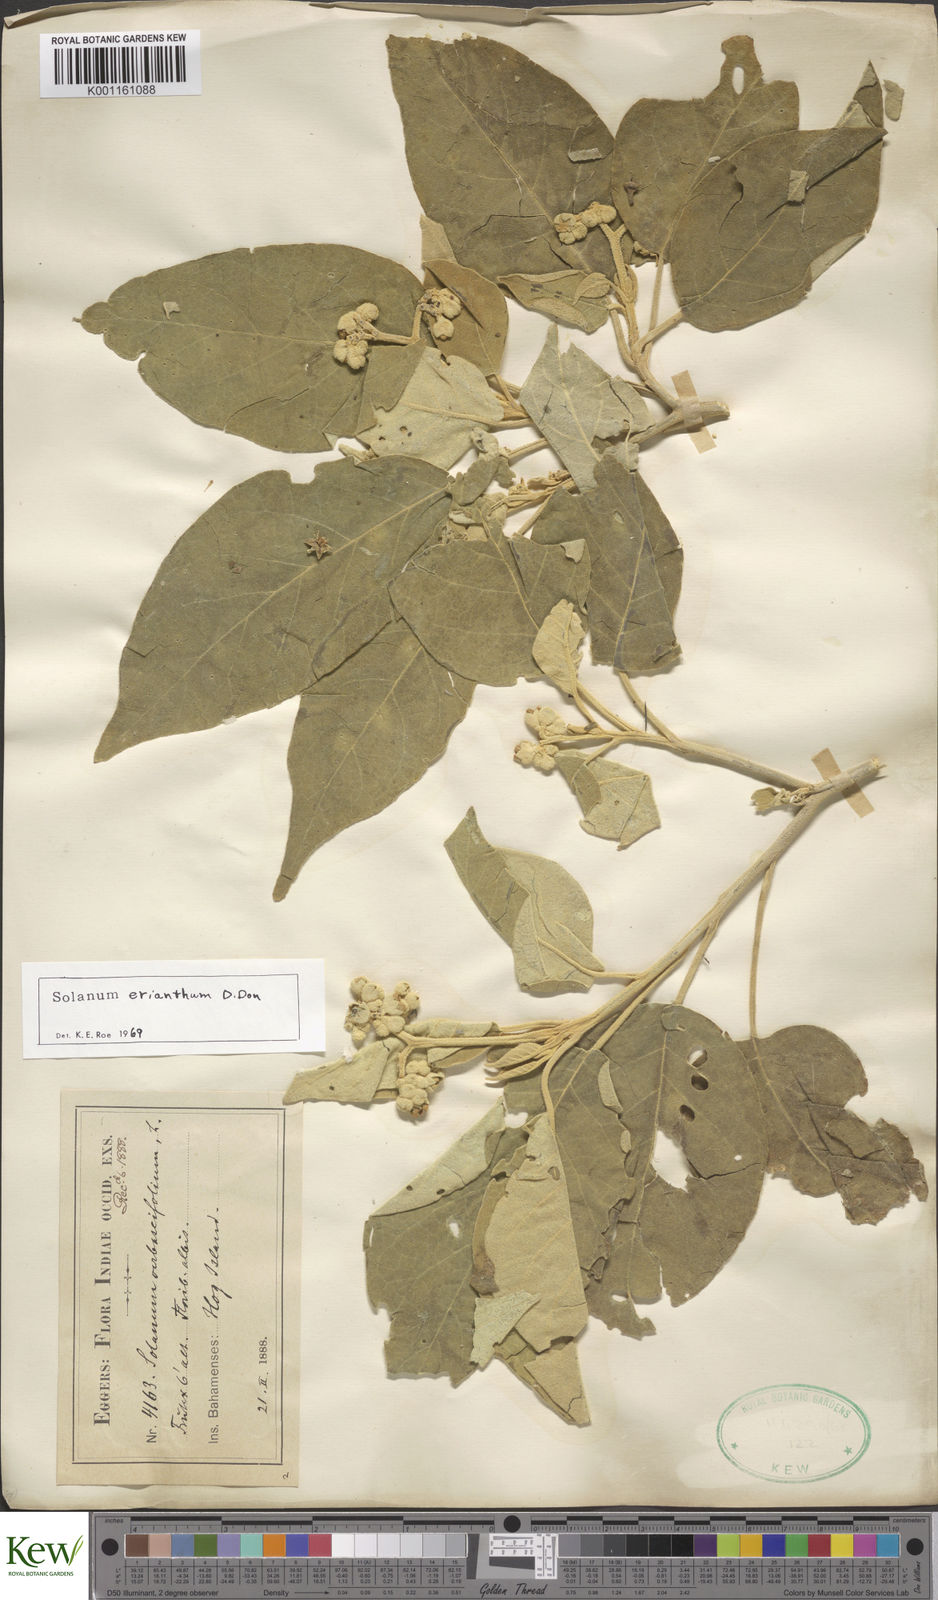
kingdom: Plantae
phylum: Tracheophyta
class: Magnoliopsida
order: Solanales
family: Solanaceae
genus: Solanum
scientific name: Solanum erianthum
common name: Tobacco-tree
